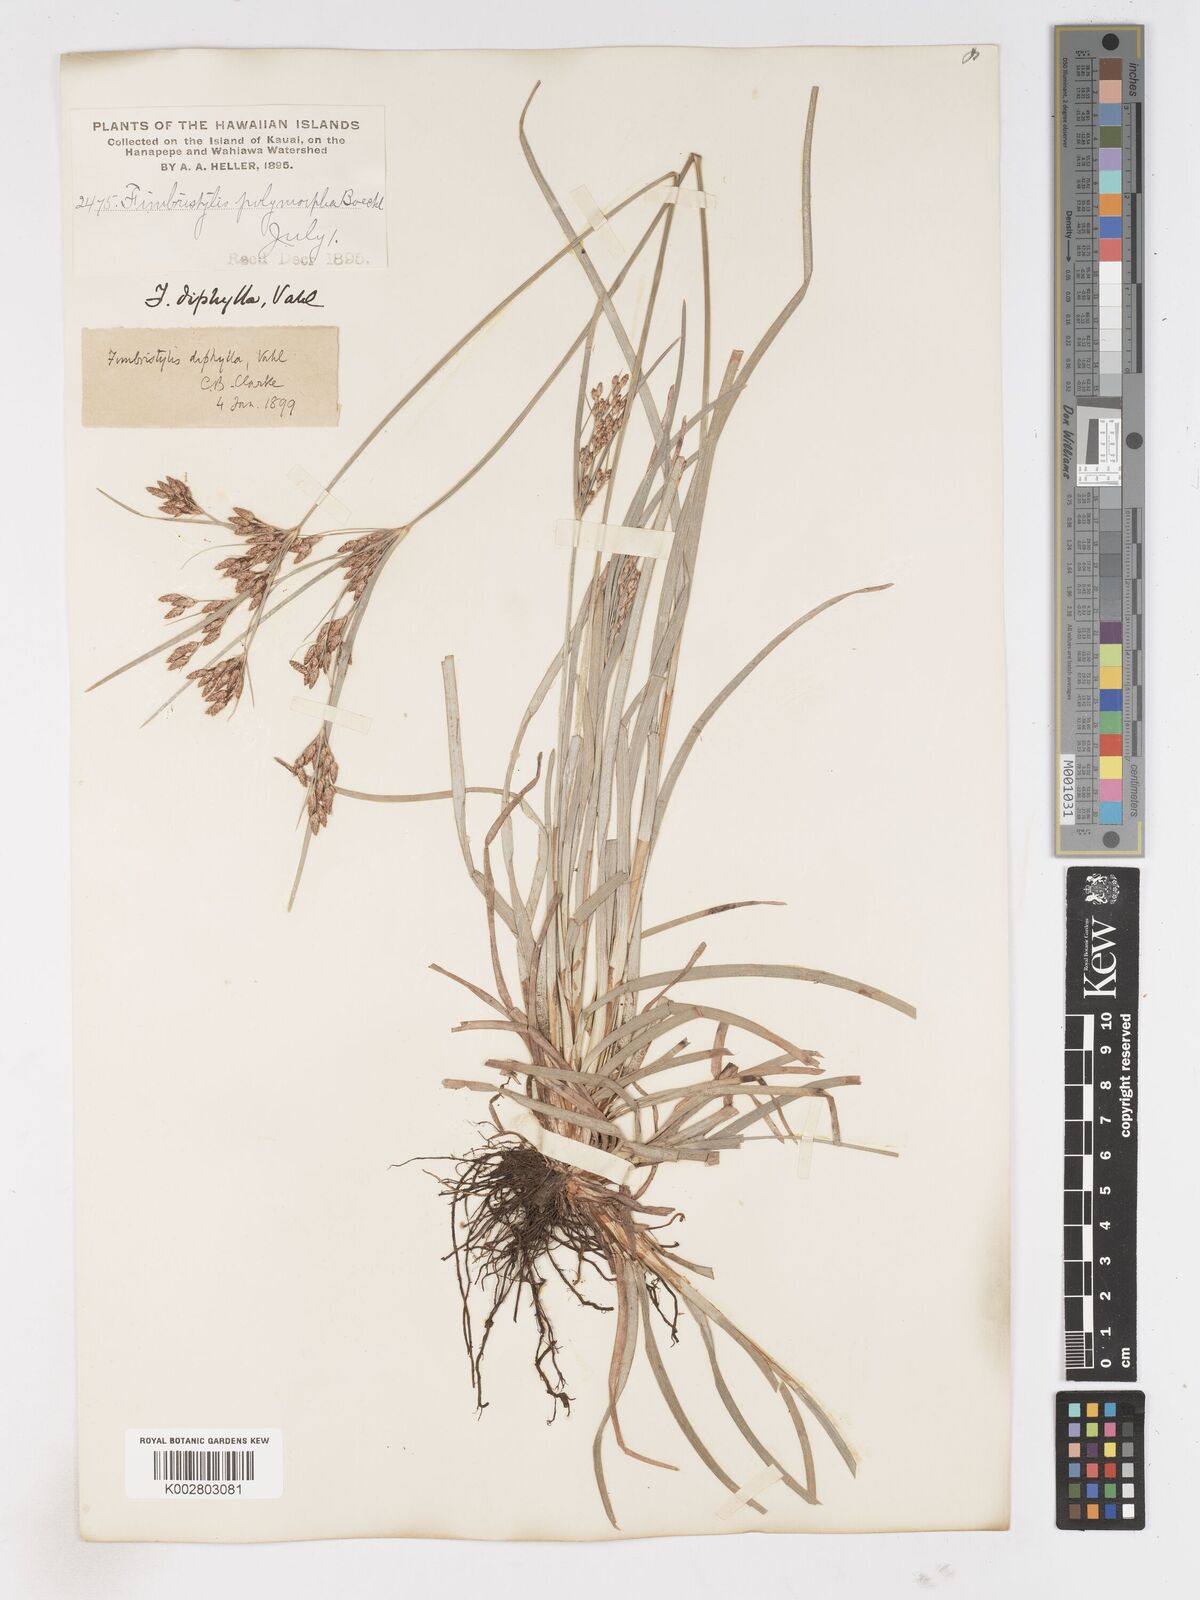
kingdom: Plantae
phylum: Tracheophyta
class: Liliopsida
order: Poales
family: Cyperaceae
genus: Fimbristylis
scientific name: Fimbristylis dichotoma
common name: Forked fimbry
